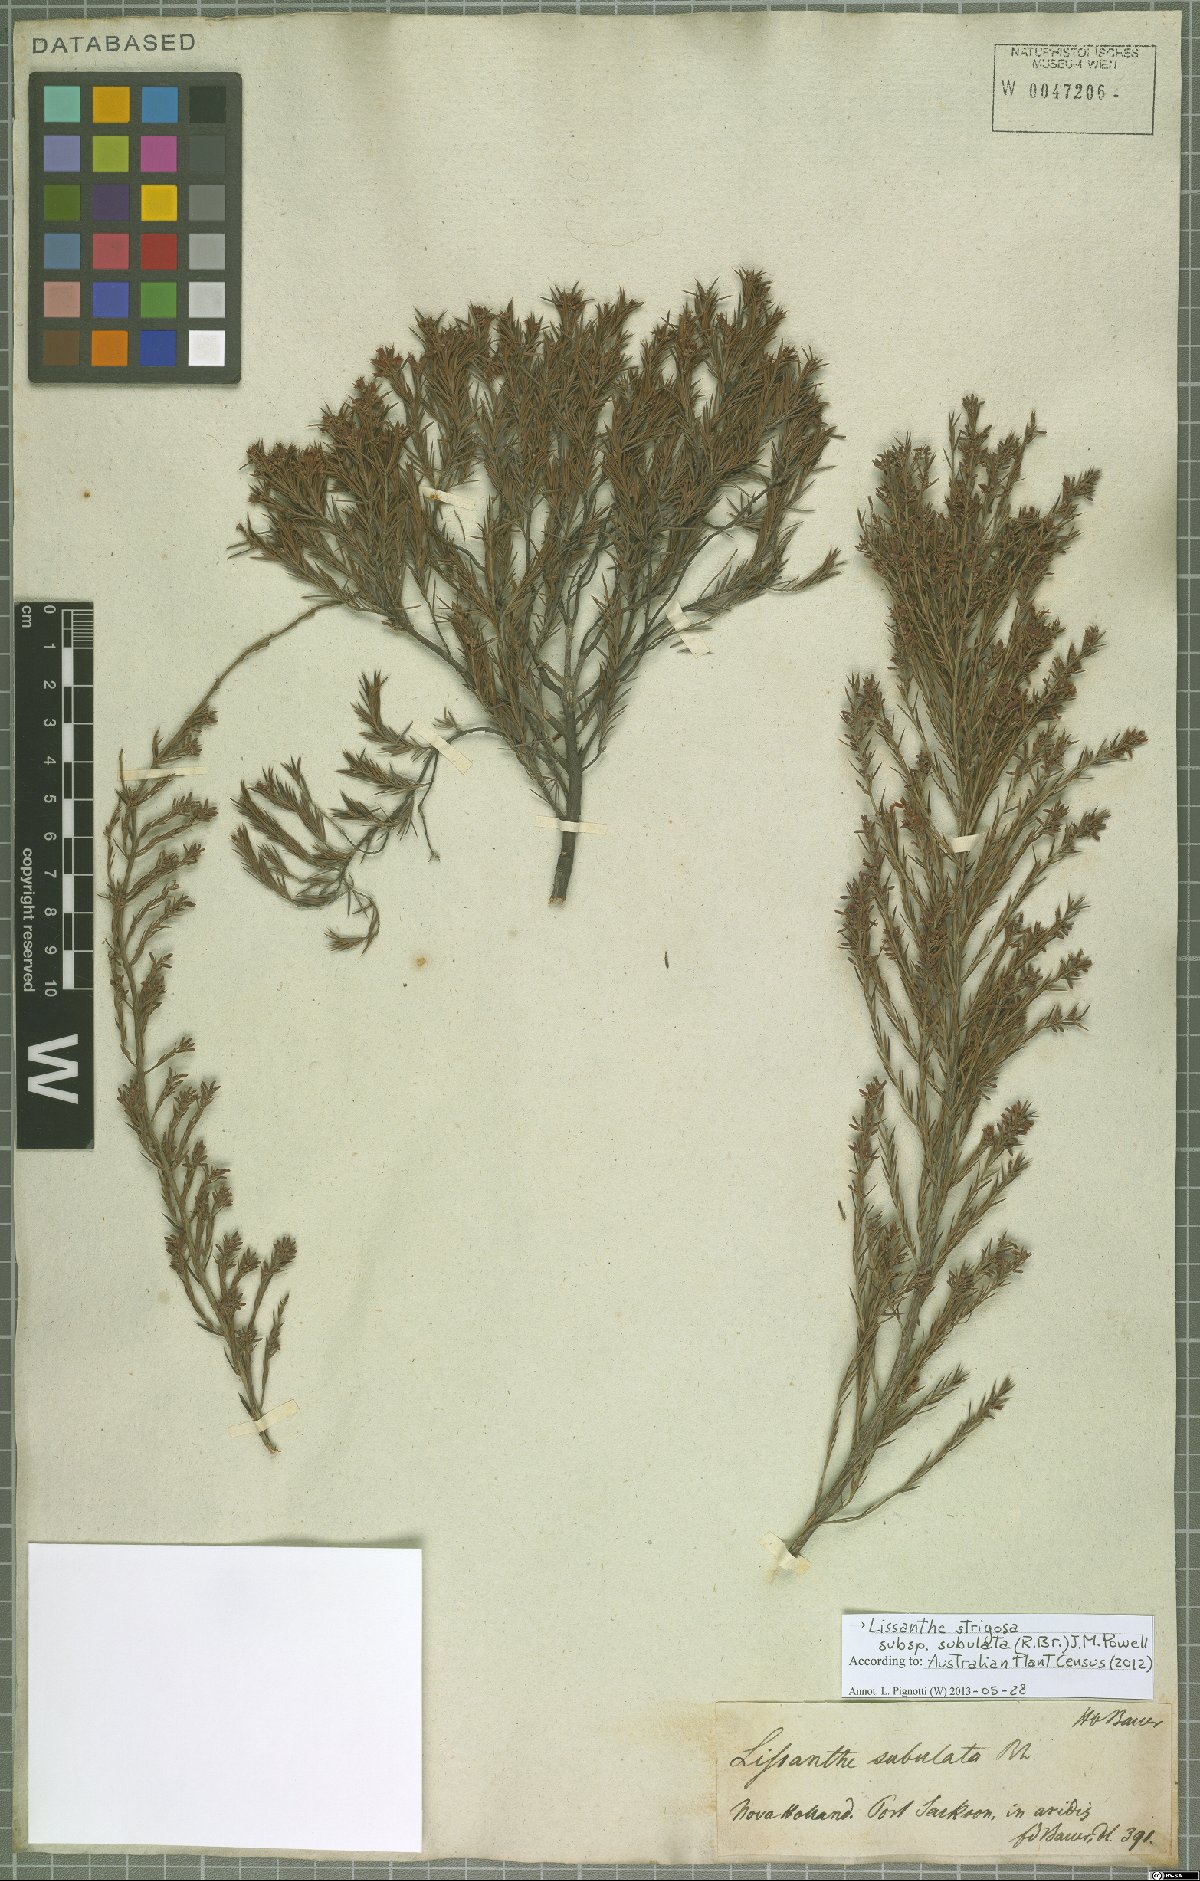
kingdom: Plantae
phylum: Tracheophyta
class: Magnoliopsida
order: Ericales
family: Ericaceae
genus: Lissanthe
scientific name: Lissanthe strigosa
